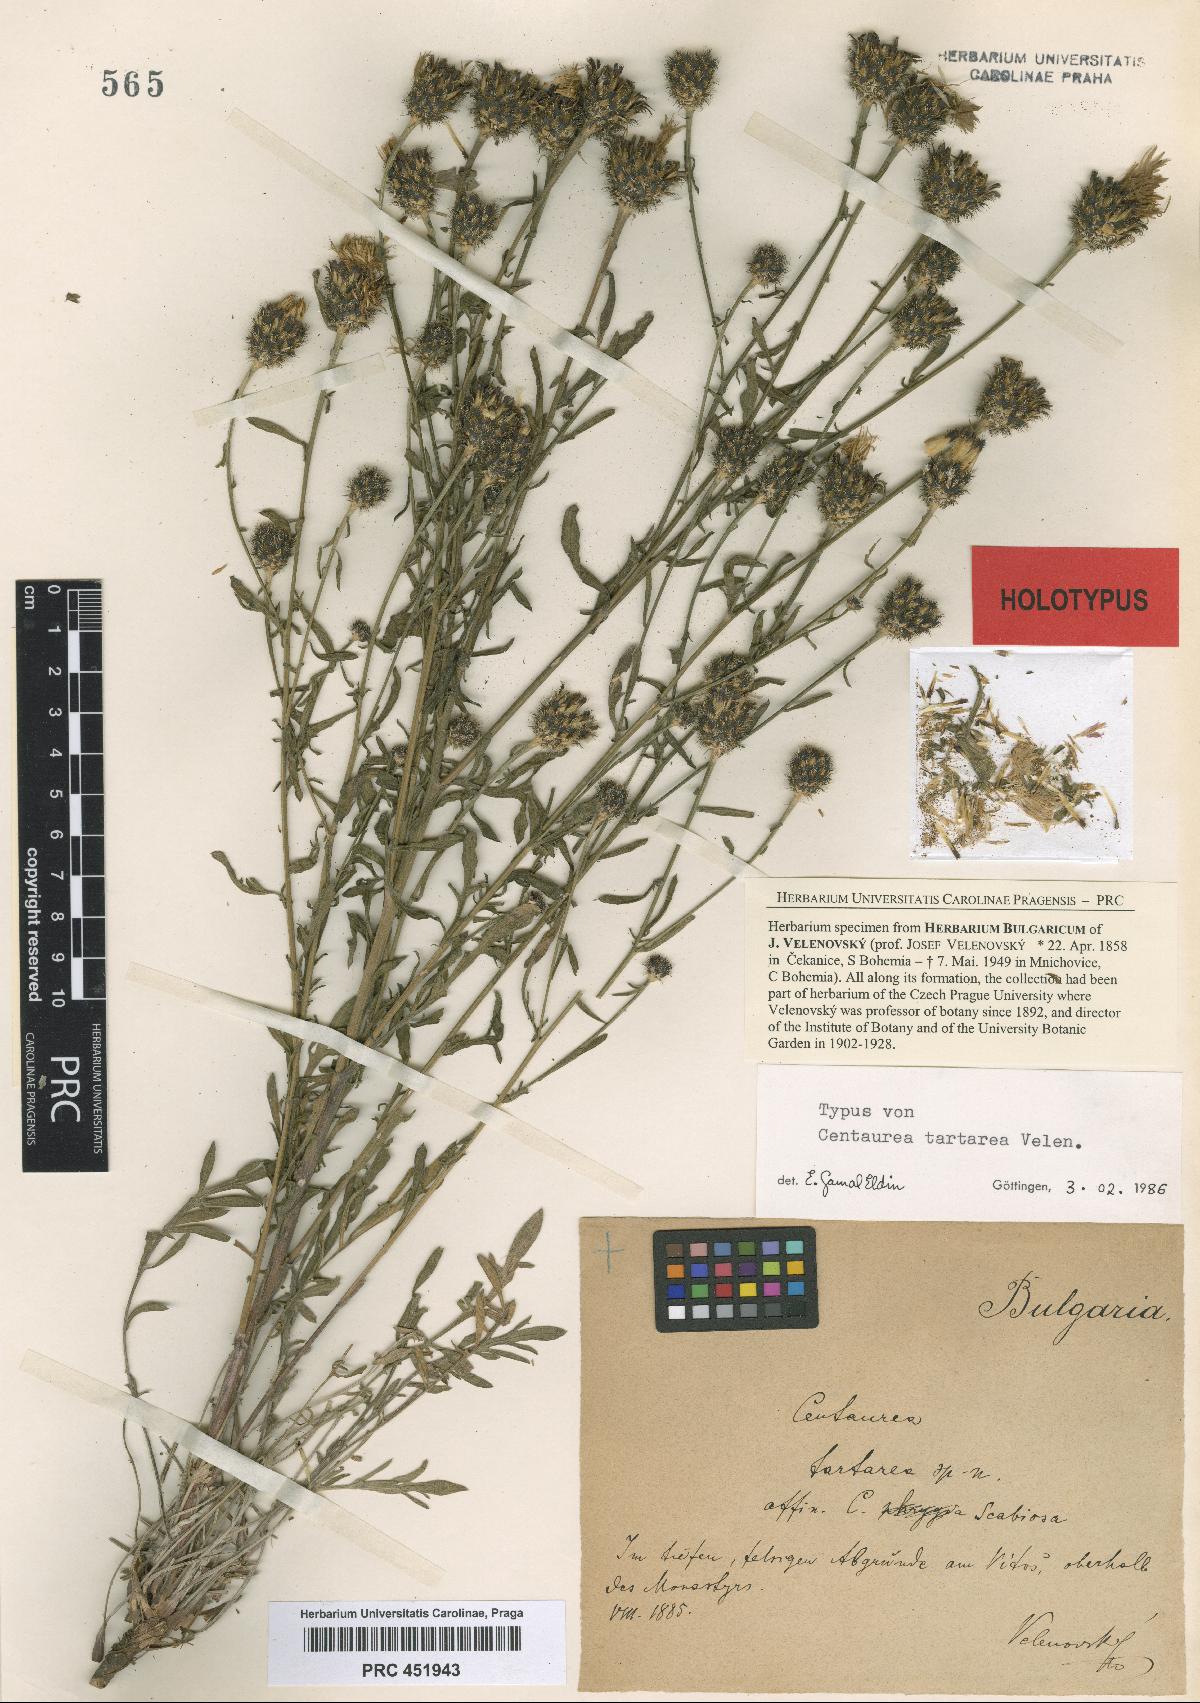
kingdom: Plantae
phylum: Tracheophyta
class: Magnoliopsida
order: Asterales
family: Asteraceae
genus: Centaurea
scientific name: Centaurea stoebe
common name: Spotted knapweed
